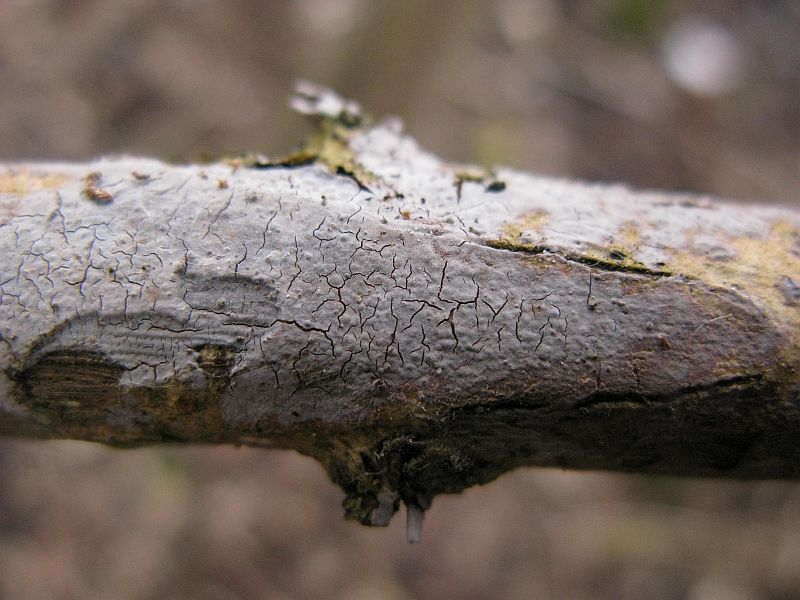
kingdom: Fungi
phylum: Basidiomycota
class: Agaricomycetes
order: Russulales
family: Peniophoraceae
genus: Peniophora
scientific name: Peniophora lycii
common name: grynet voksskind
